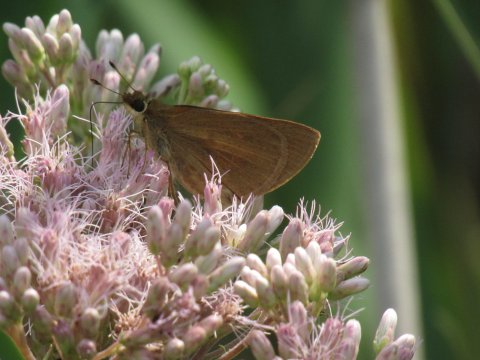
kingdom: Animalia
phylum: Arthropoda
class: Insecta
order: Lepidoptera
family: Hesperiidae
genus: Poanes
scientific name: Poanes viator
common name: Broad-winged Skipper
